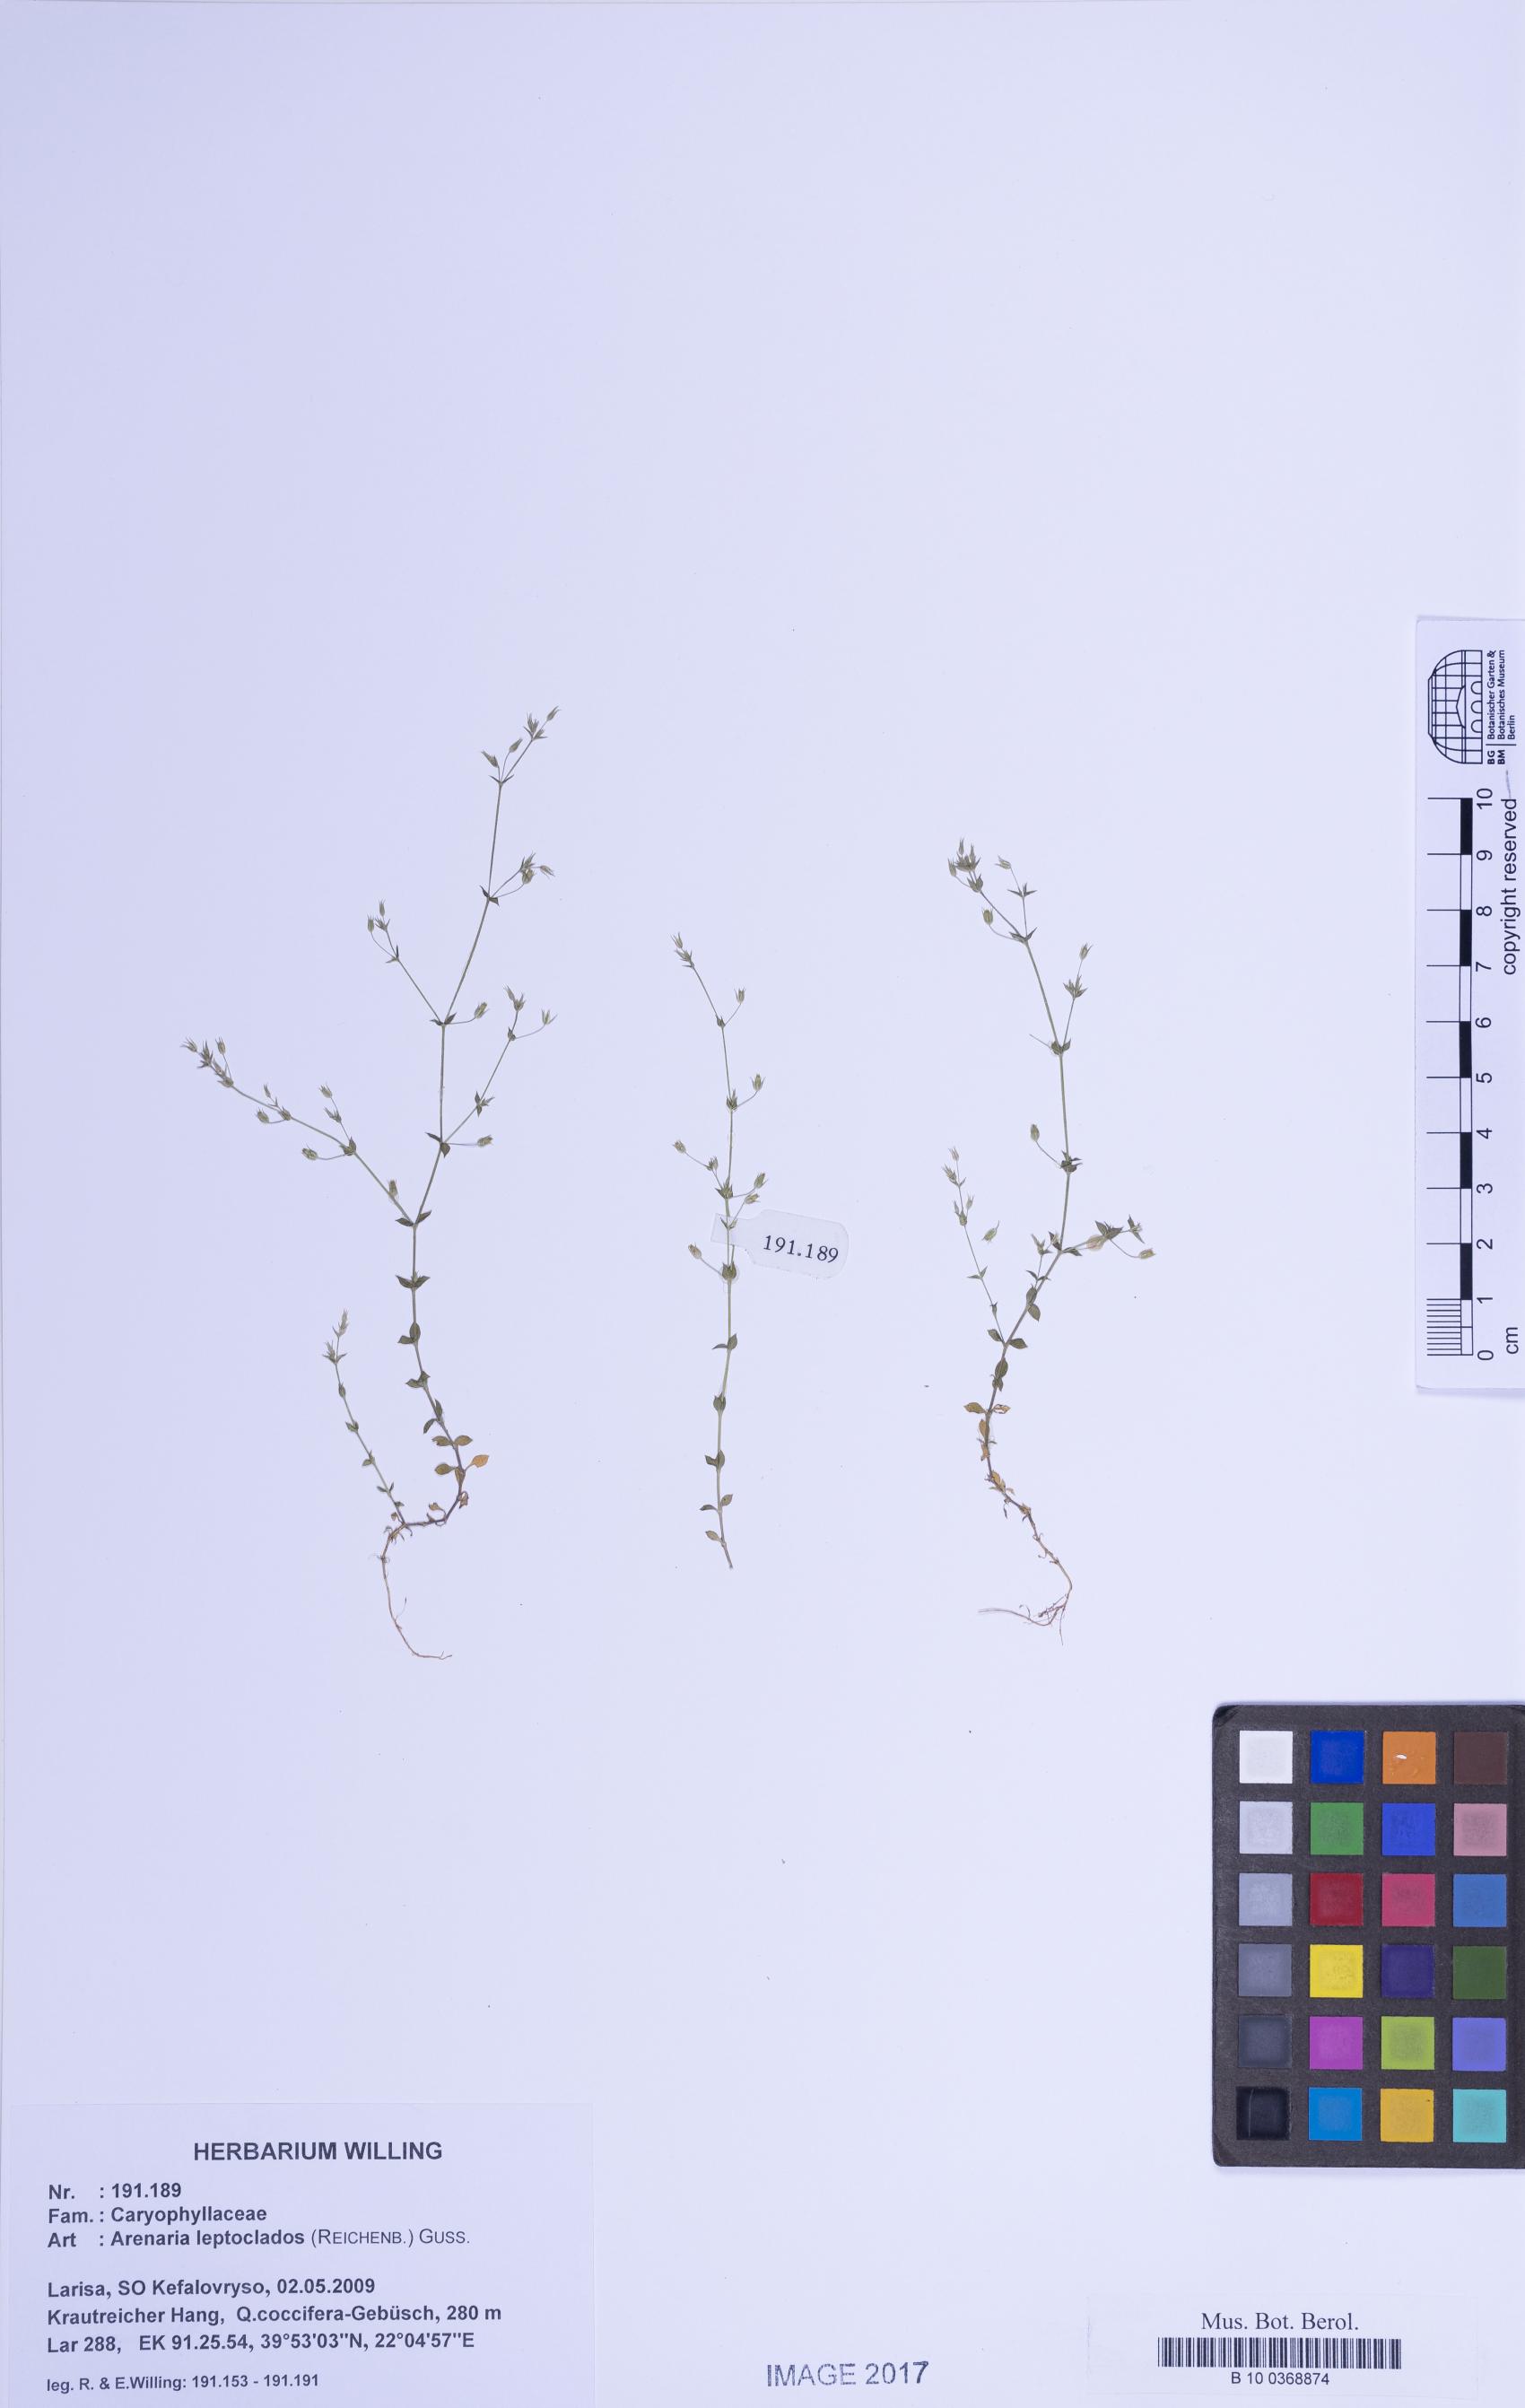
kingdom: Plantae
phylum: Tracheophyta
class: Magnoliopsida
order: Caryophyllales
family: Caryophyllaceae
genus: Arenaria
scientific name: Arenaria leptoclados
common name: Thyme-leaved sandwort
